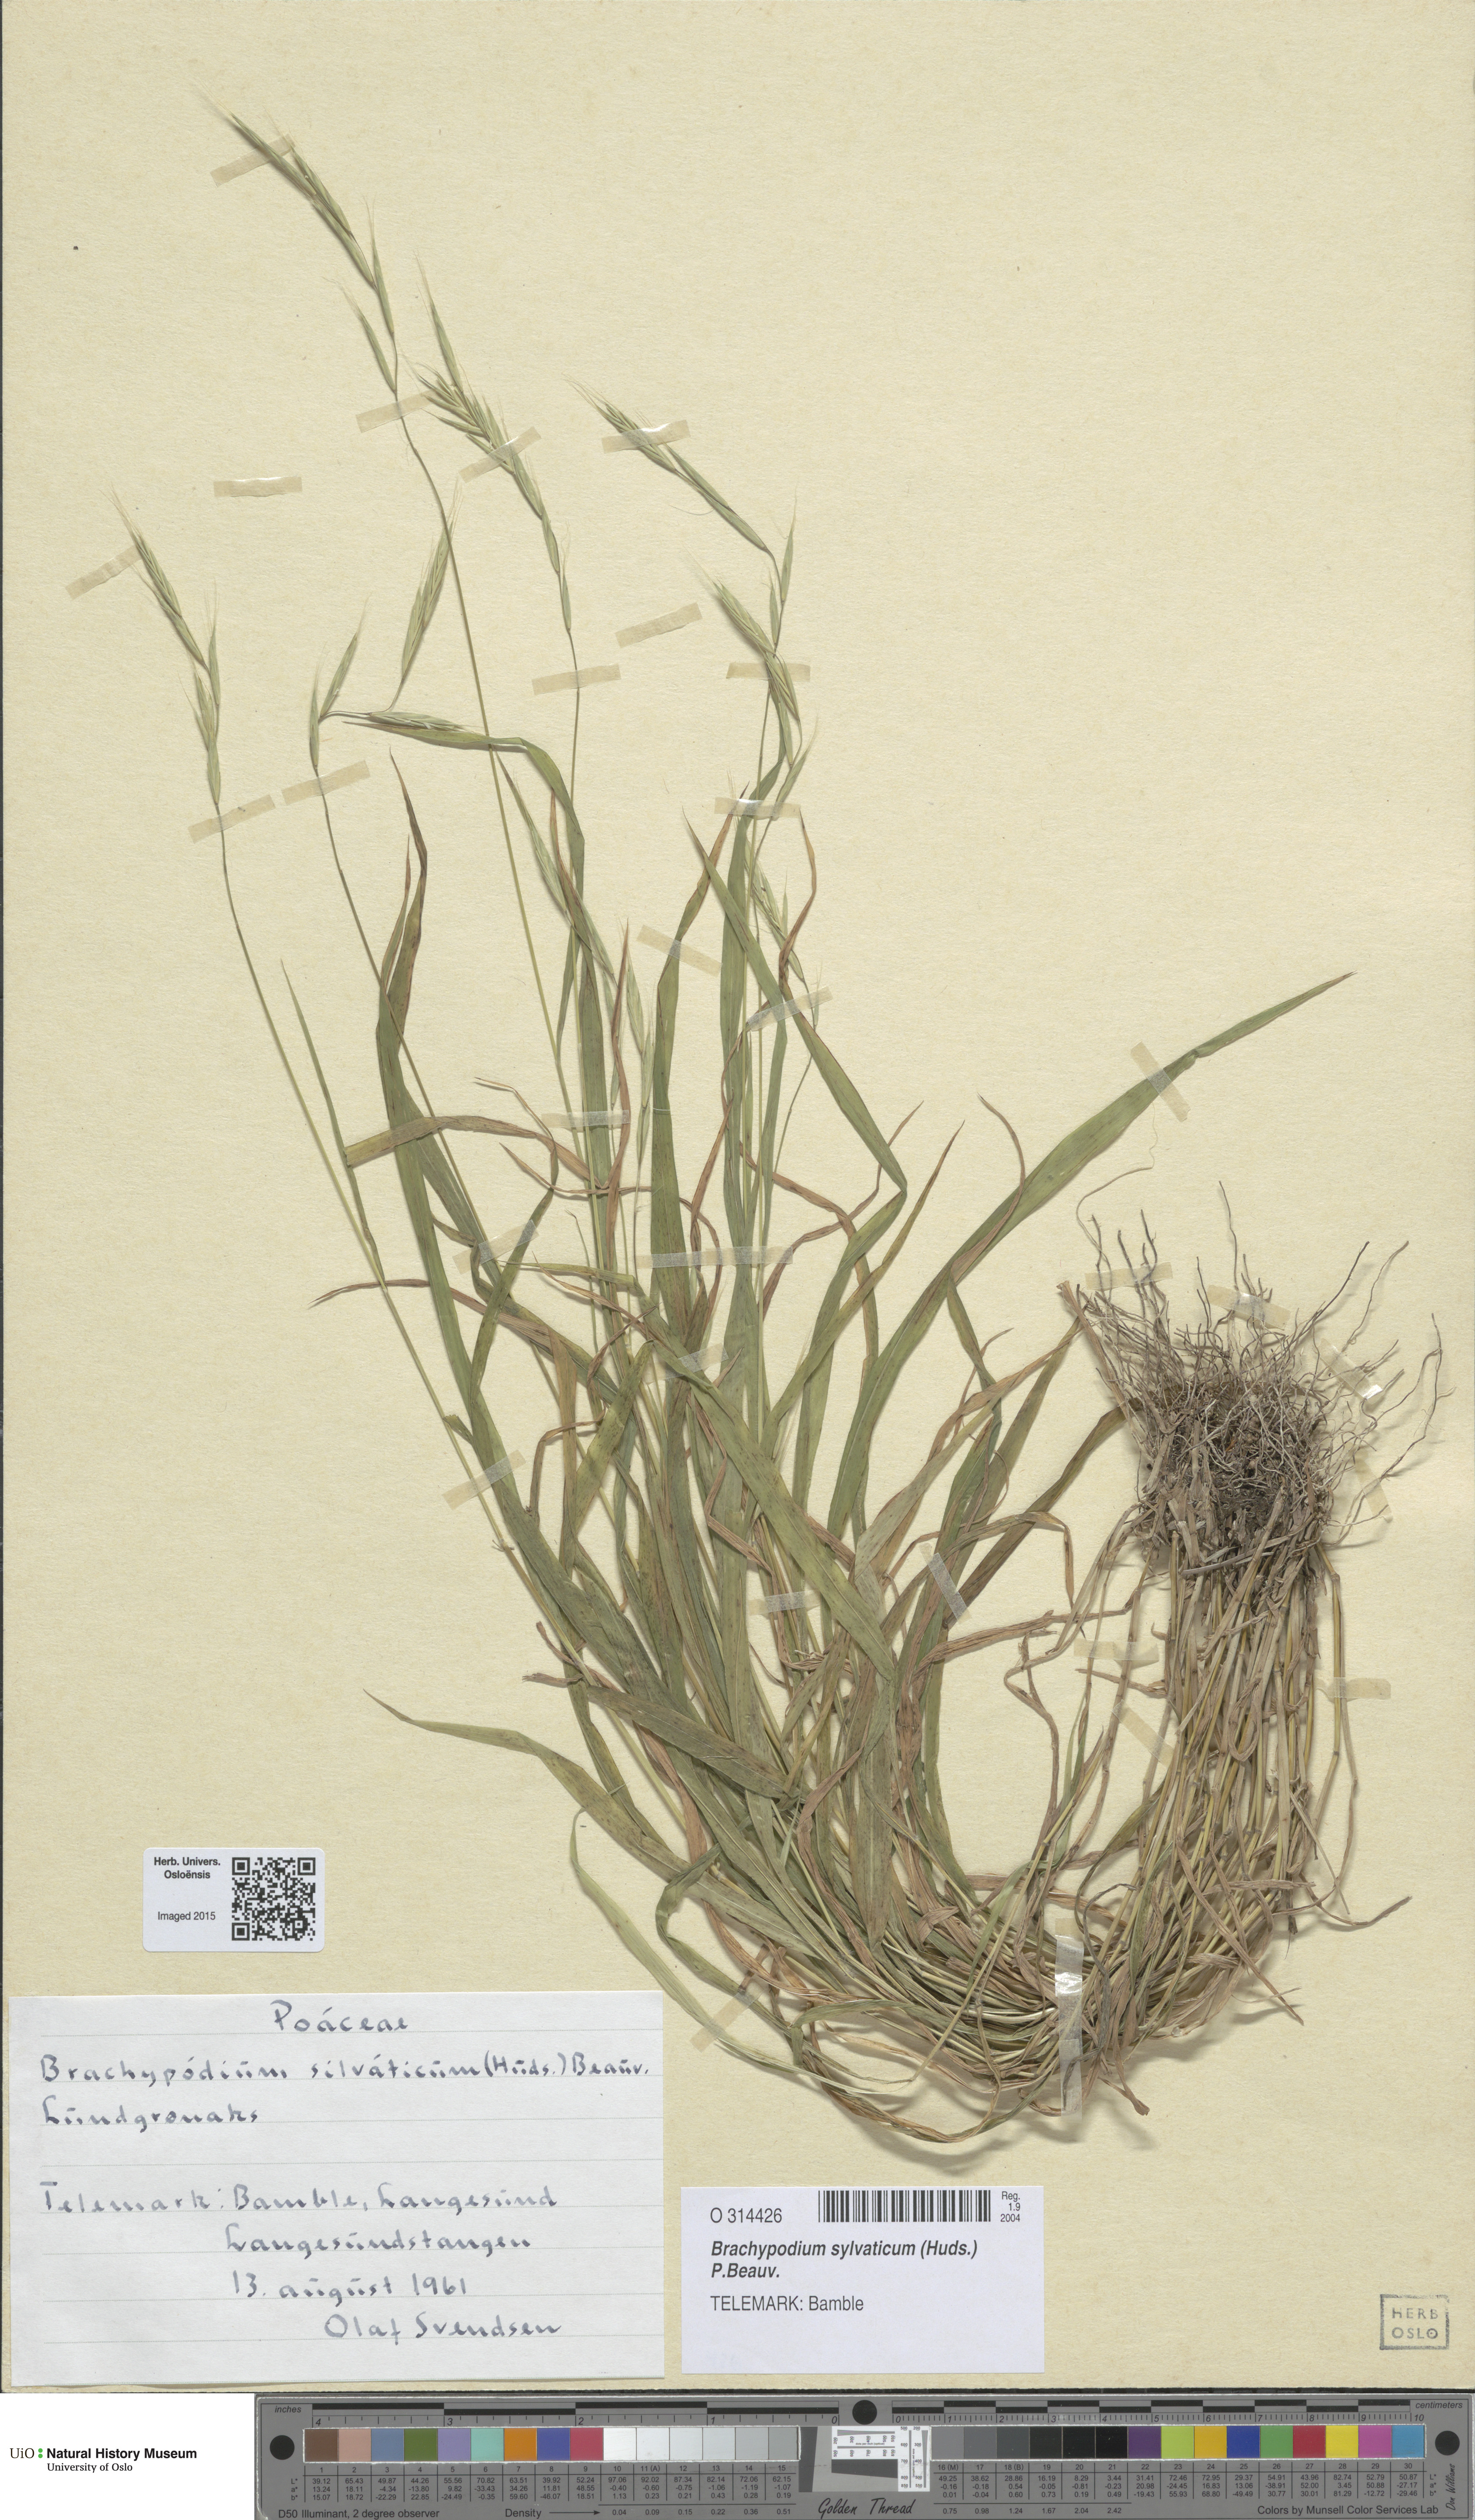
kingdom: Plantae
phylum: Tracheophyta
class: Liliopsida
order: Poales
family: Poaceae
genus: Brachypodium
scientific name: Brachypodium sylvaticum
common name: False-brome
